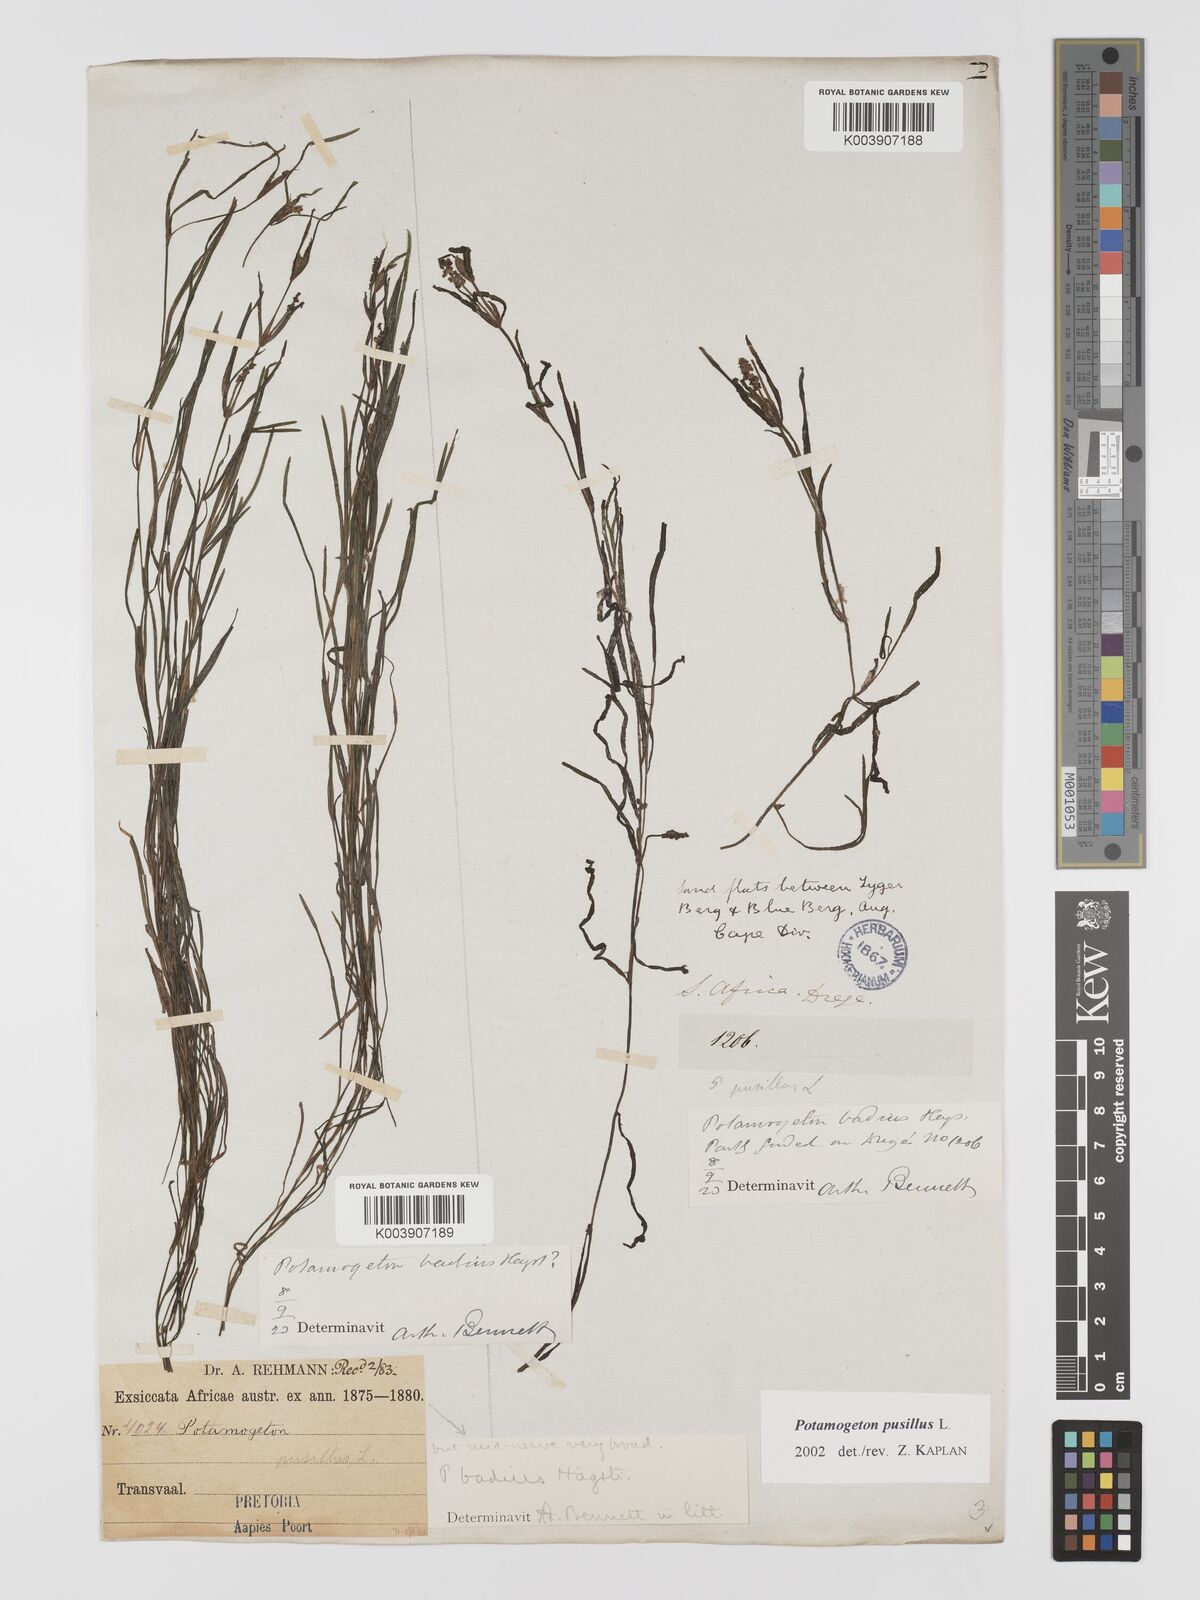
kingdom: Plantae
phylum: Tracheophyta
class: Liliopsida
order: Alismatales
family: Potamogetonaceae
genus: Potamogeton
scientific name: Potamogeton pusillus
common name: Lesser pondweed
